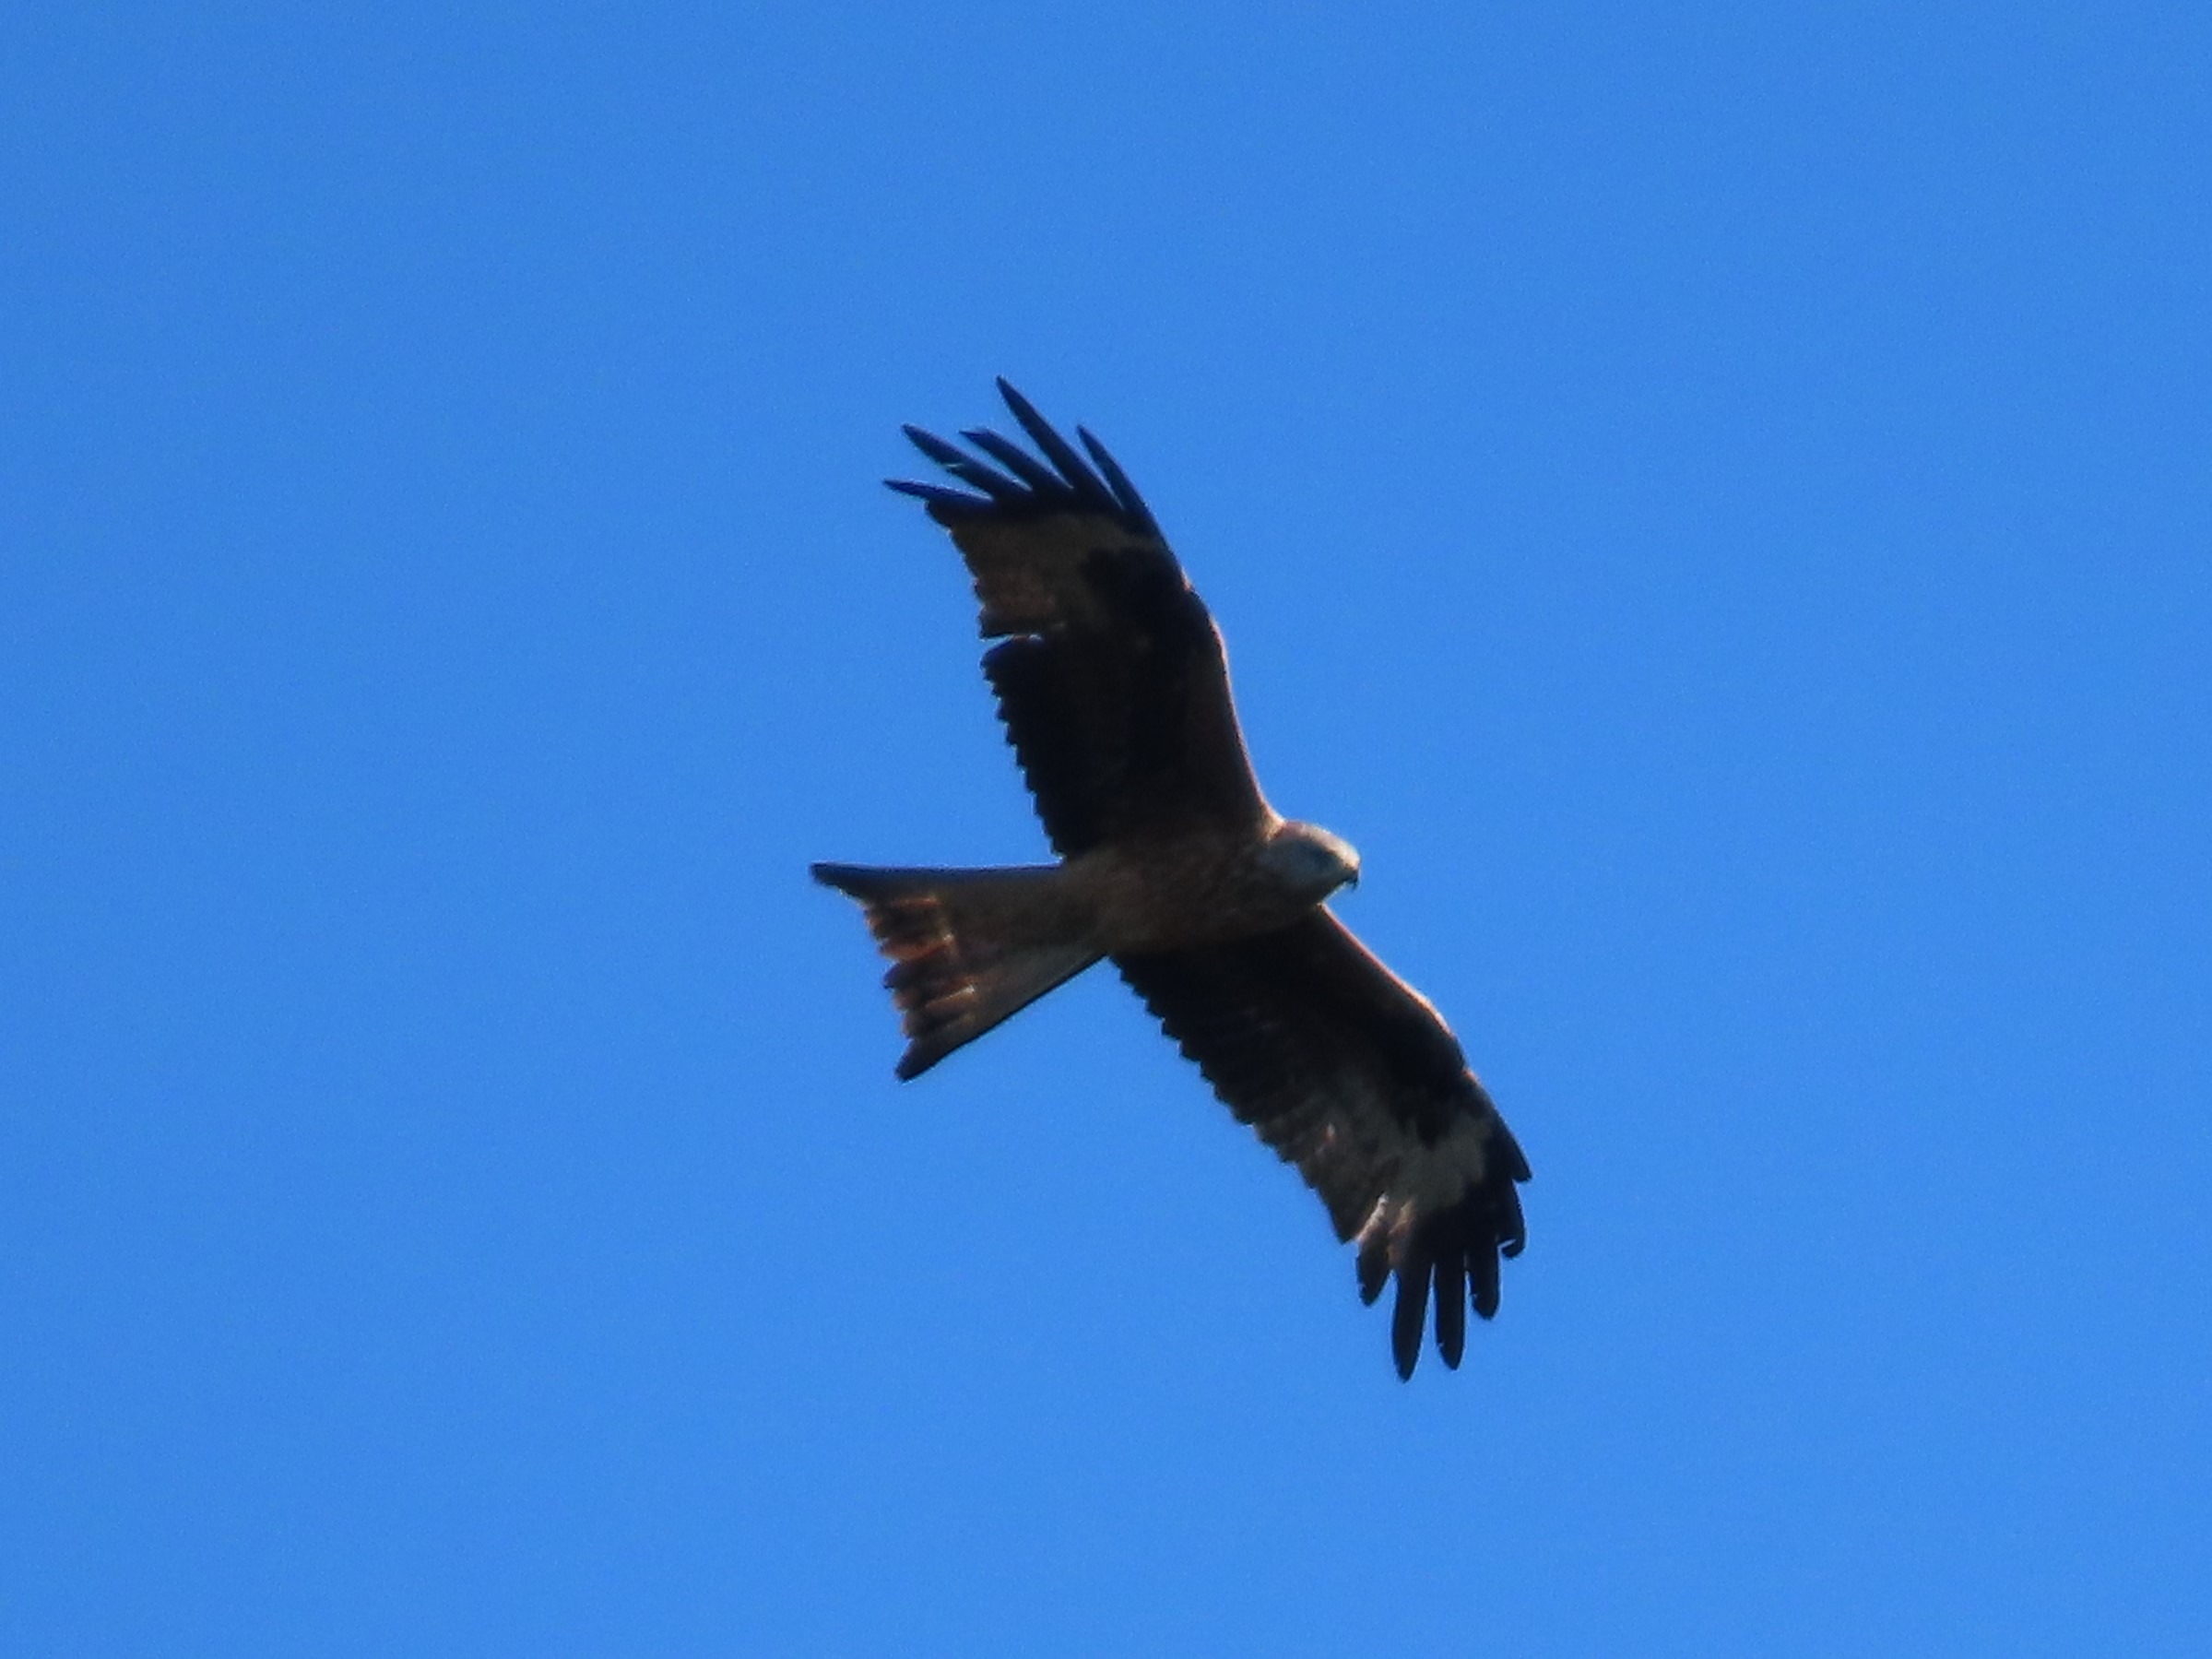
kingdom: Animalia
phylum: Chordata
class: Aves
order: Accipitriformes
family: Accipitridae
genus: Milvus
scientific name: Milvus milvus
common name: Rød glente
